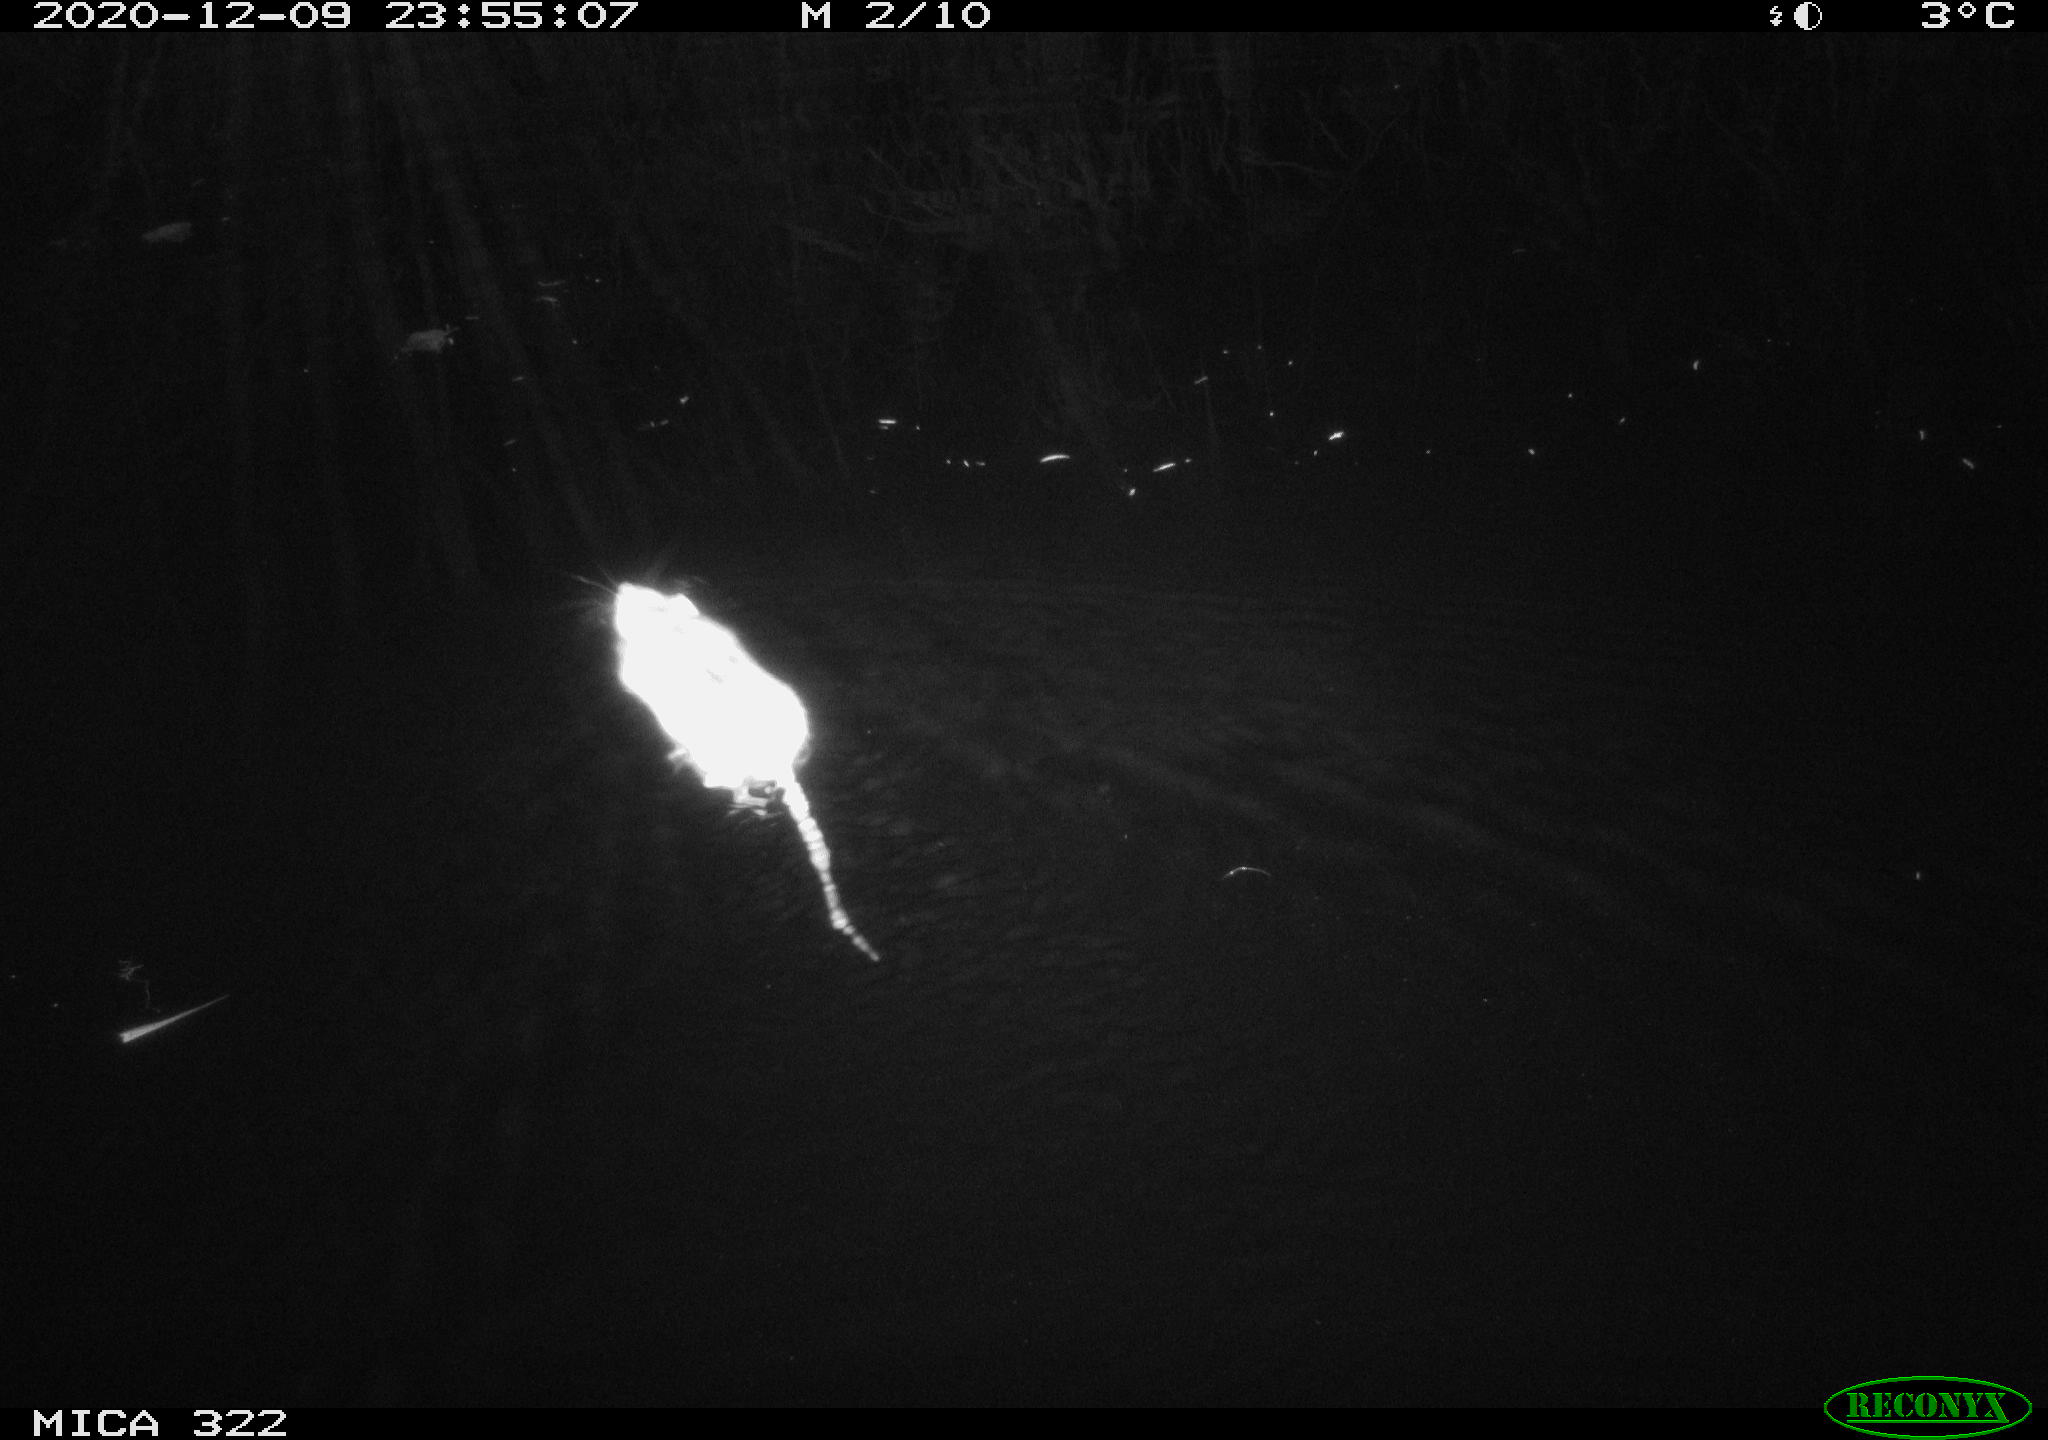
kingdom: Animalia
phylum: Chordata
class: Mammalia
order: Rodentia
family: Muridae
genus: Rattus
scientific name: Rattus norvegicus
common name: Brown rat
